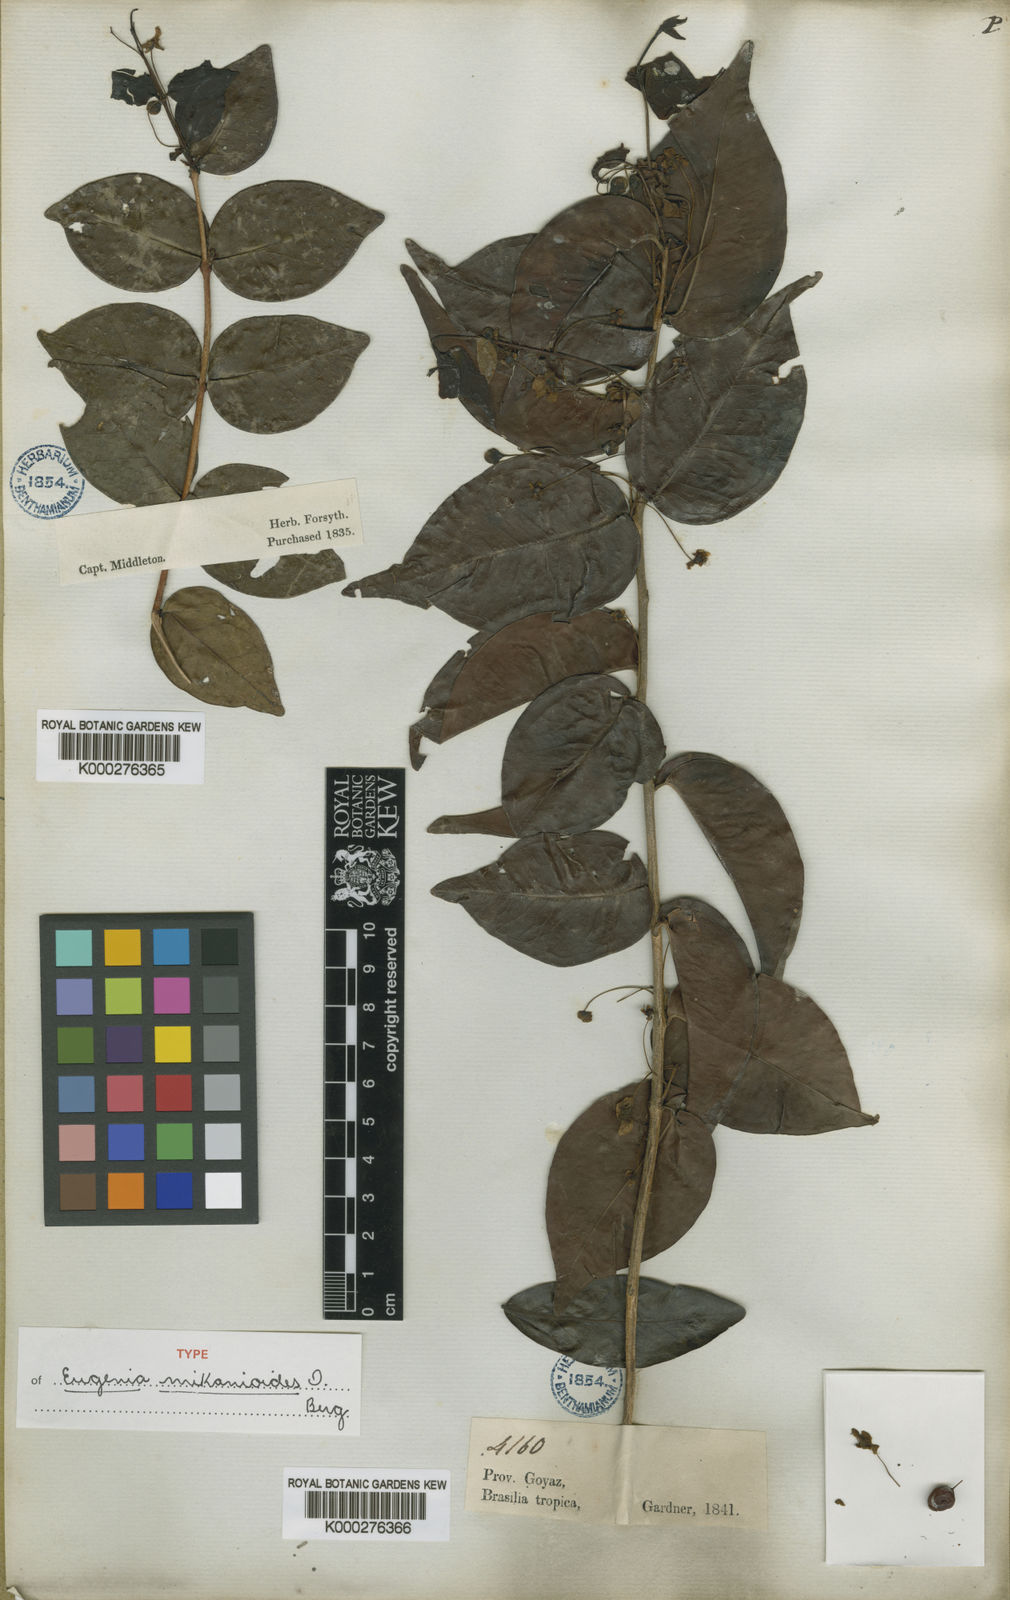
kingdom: Plantae
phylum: Tracheophyta
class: Magnoliopsida
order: Myrtales
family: Myrtaceae
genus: Eugenia
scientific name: Eugenia candolleana
